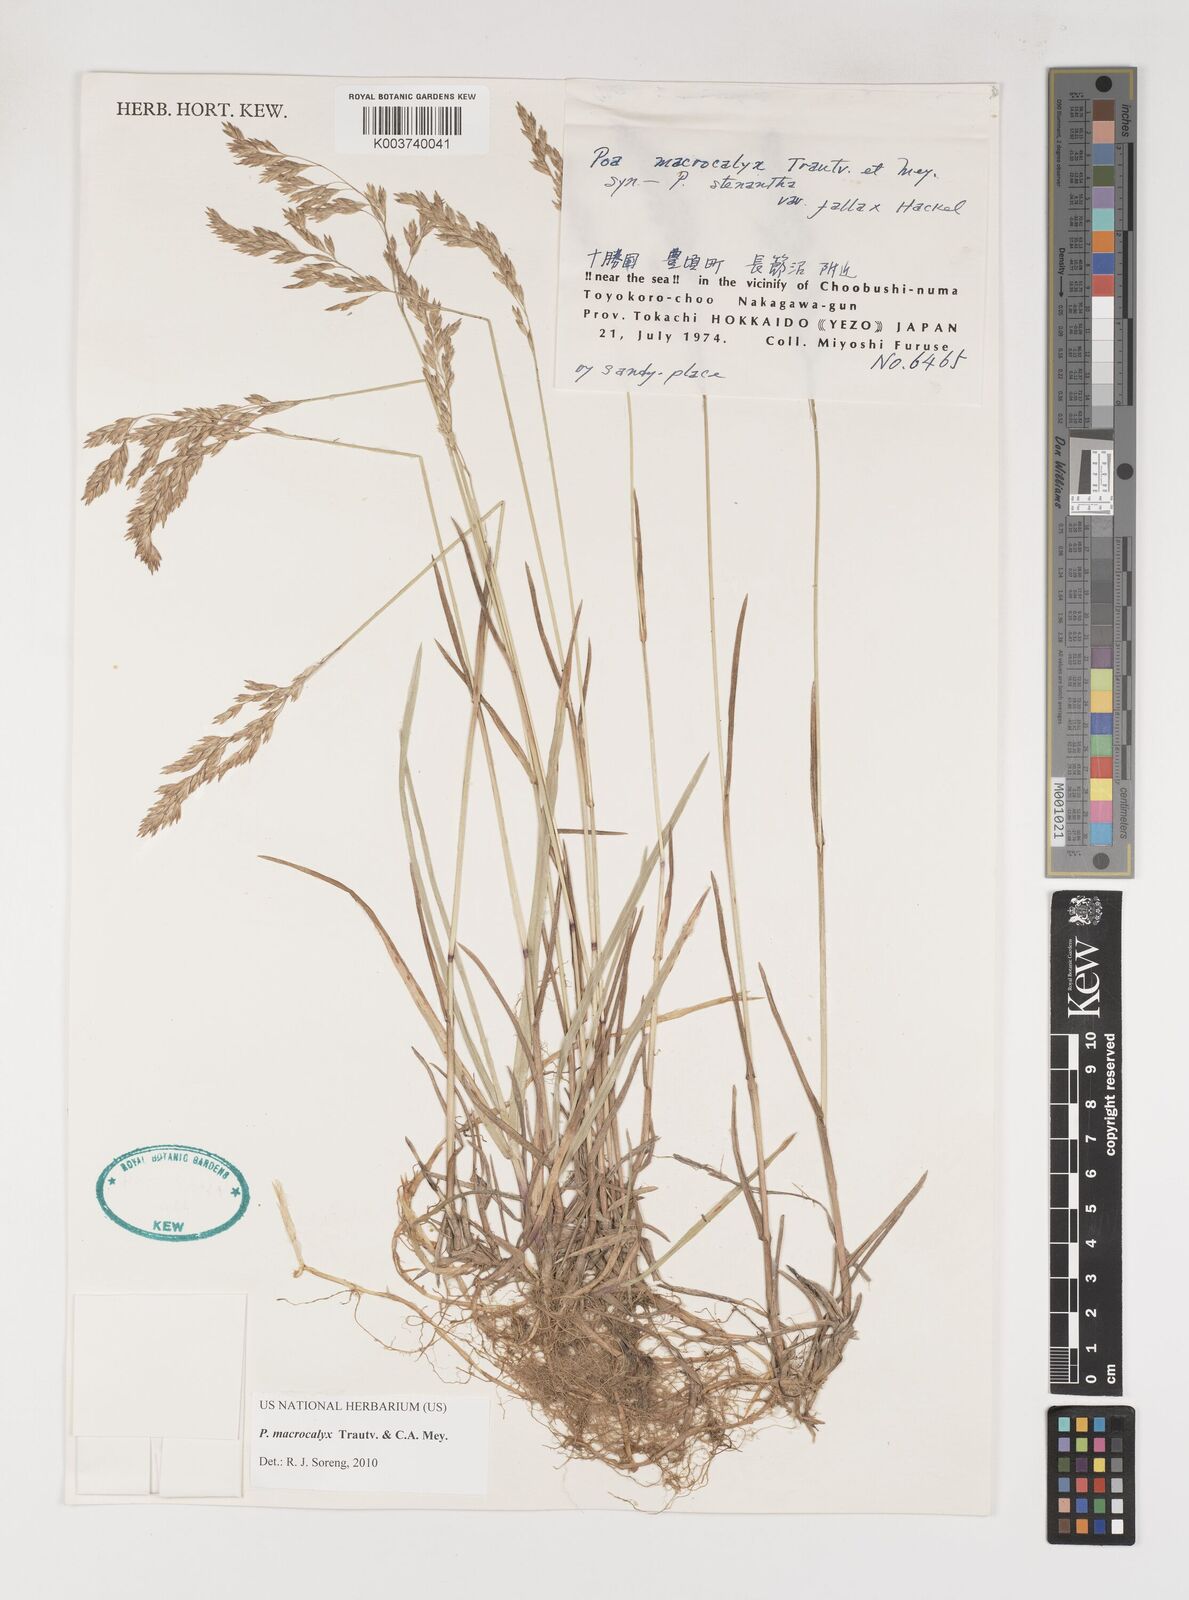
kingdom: Plantae
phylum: Tracheophyta
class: Liliopsida
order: Poales
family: Poaceae
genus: Poa
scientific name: Poa macrocalyx
